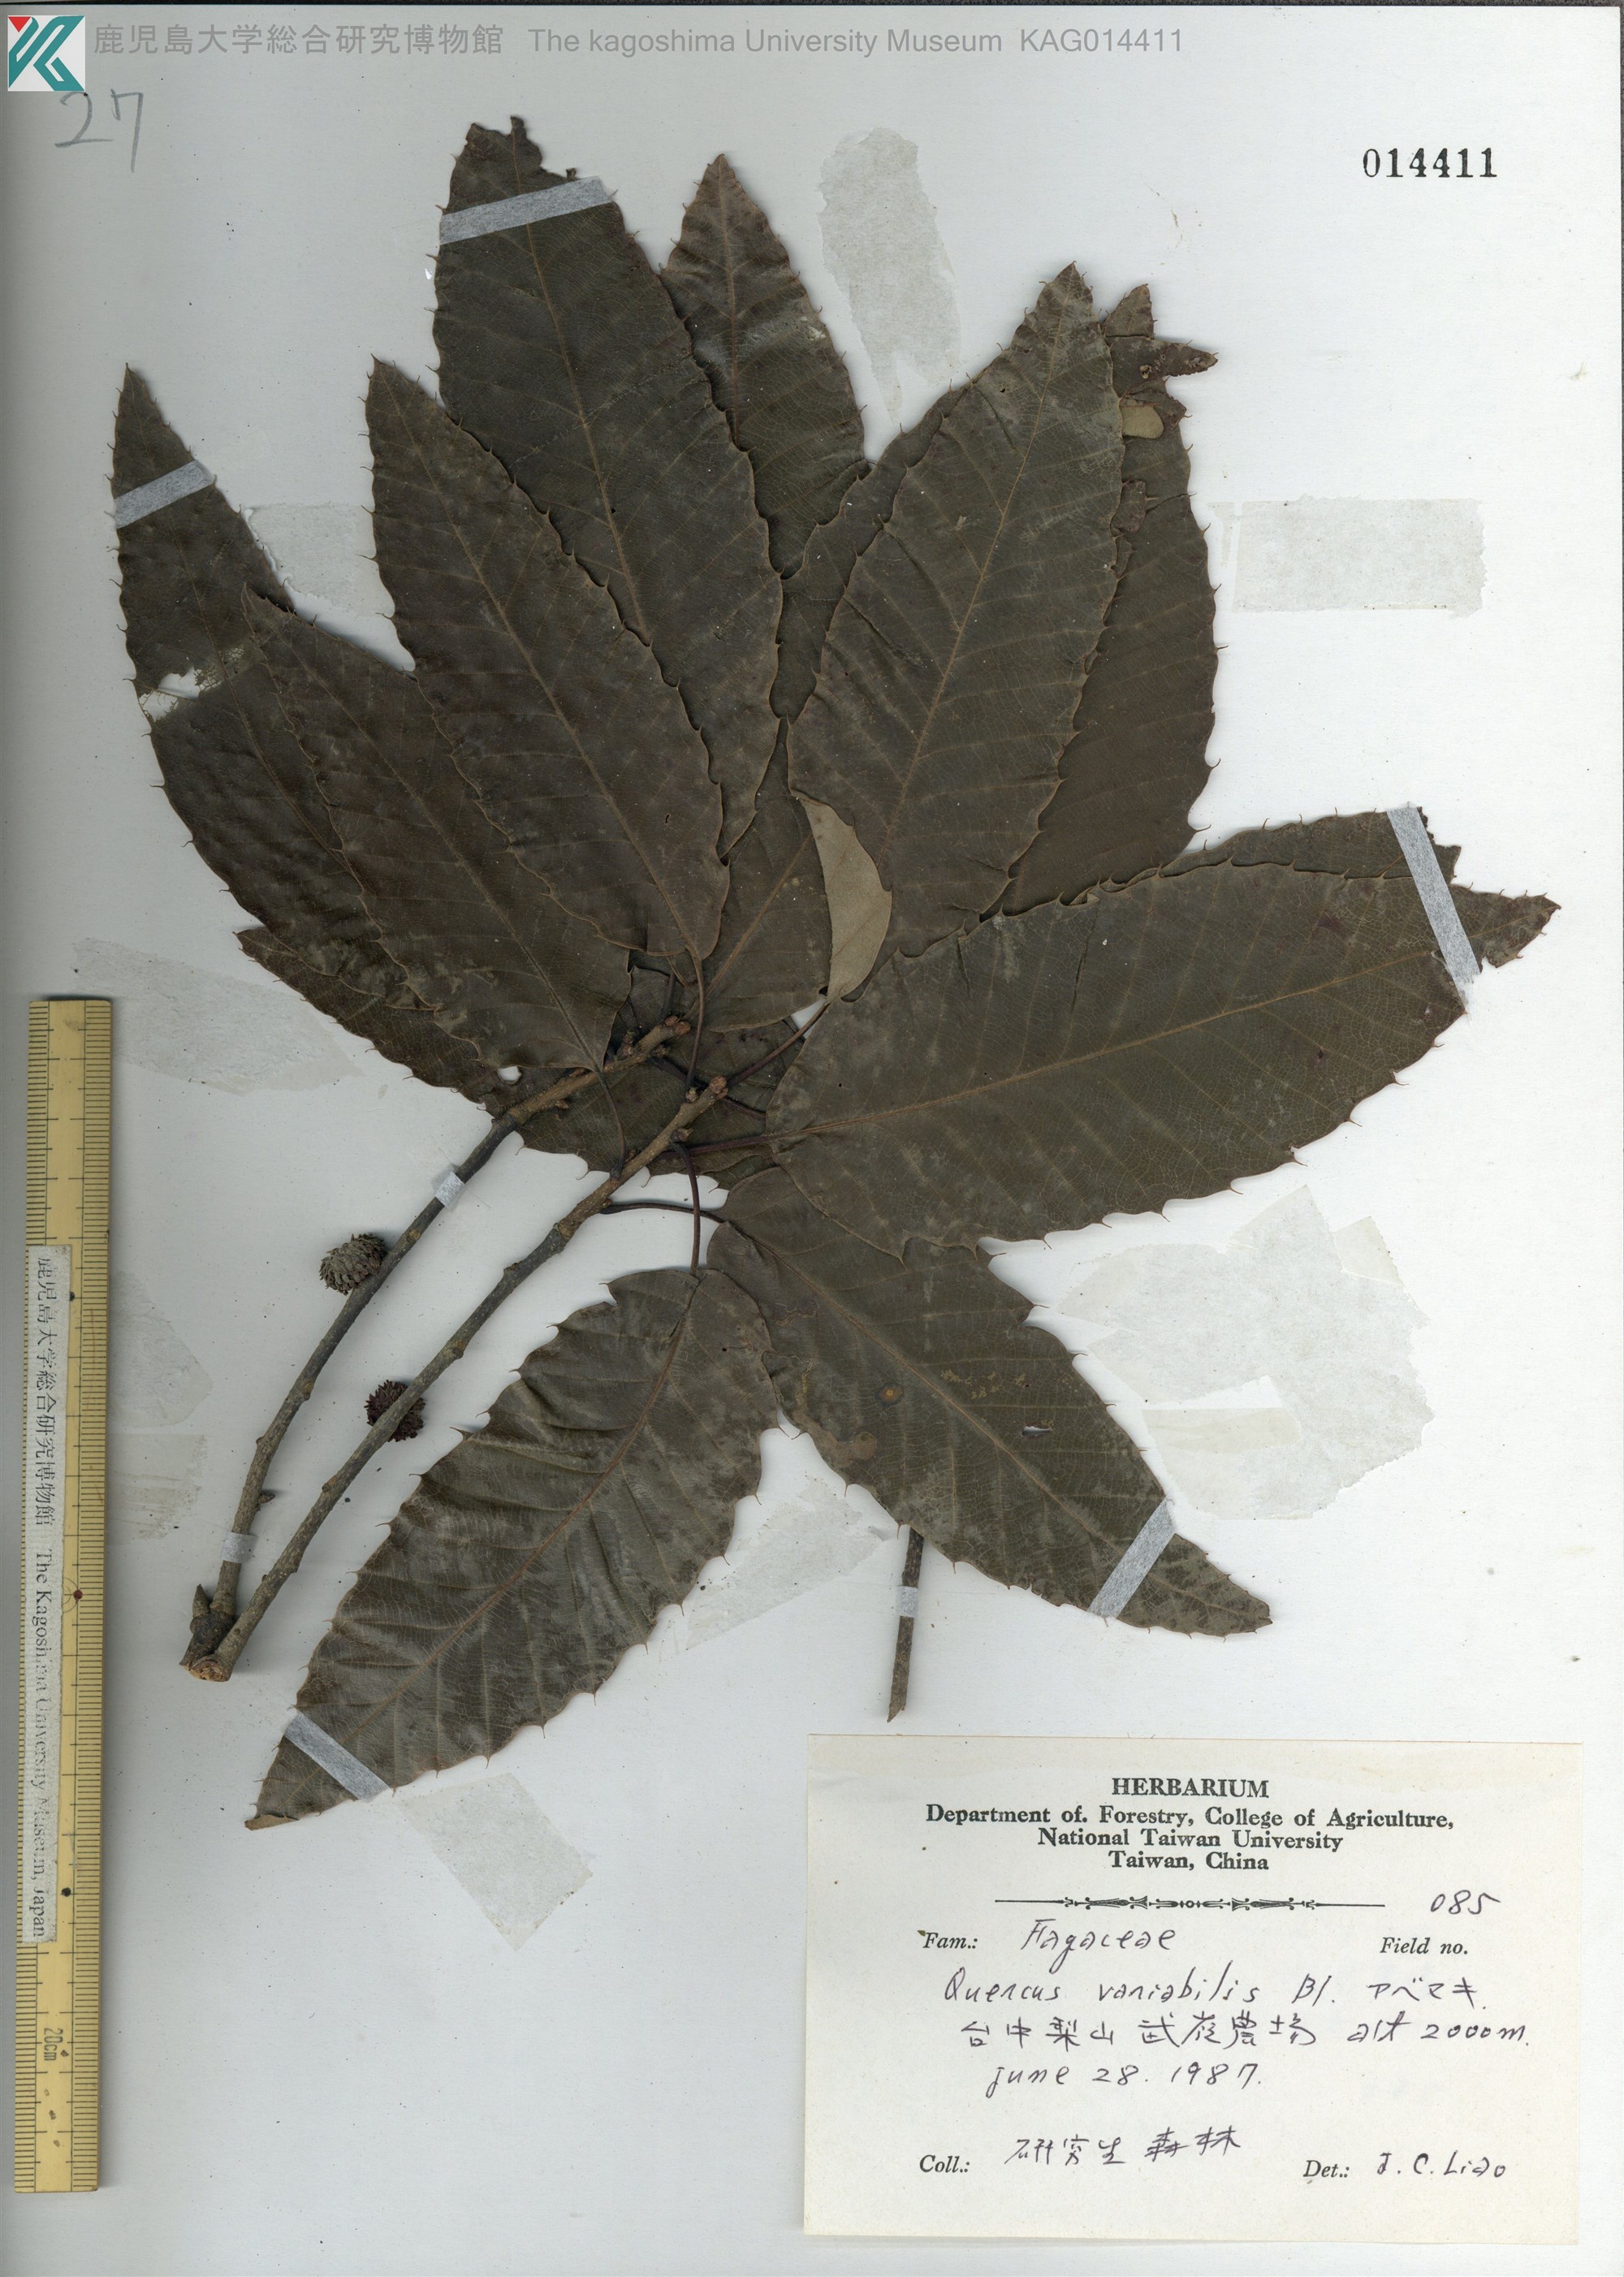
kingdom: Plantae
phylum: Tracheophyta
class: Magnoliopsida
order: Fagales
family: Fagaceae
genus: Quercus
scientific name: Quercus variabilis
